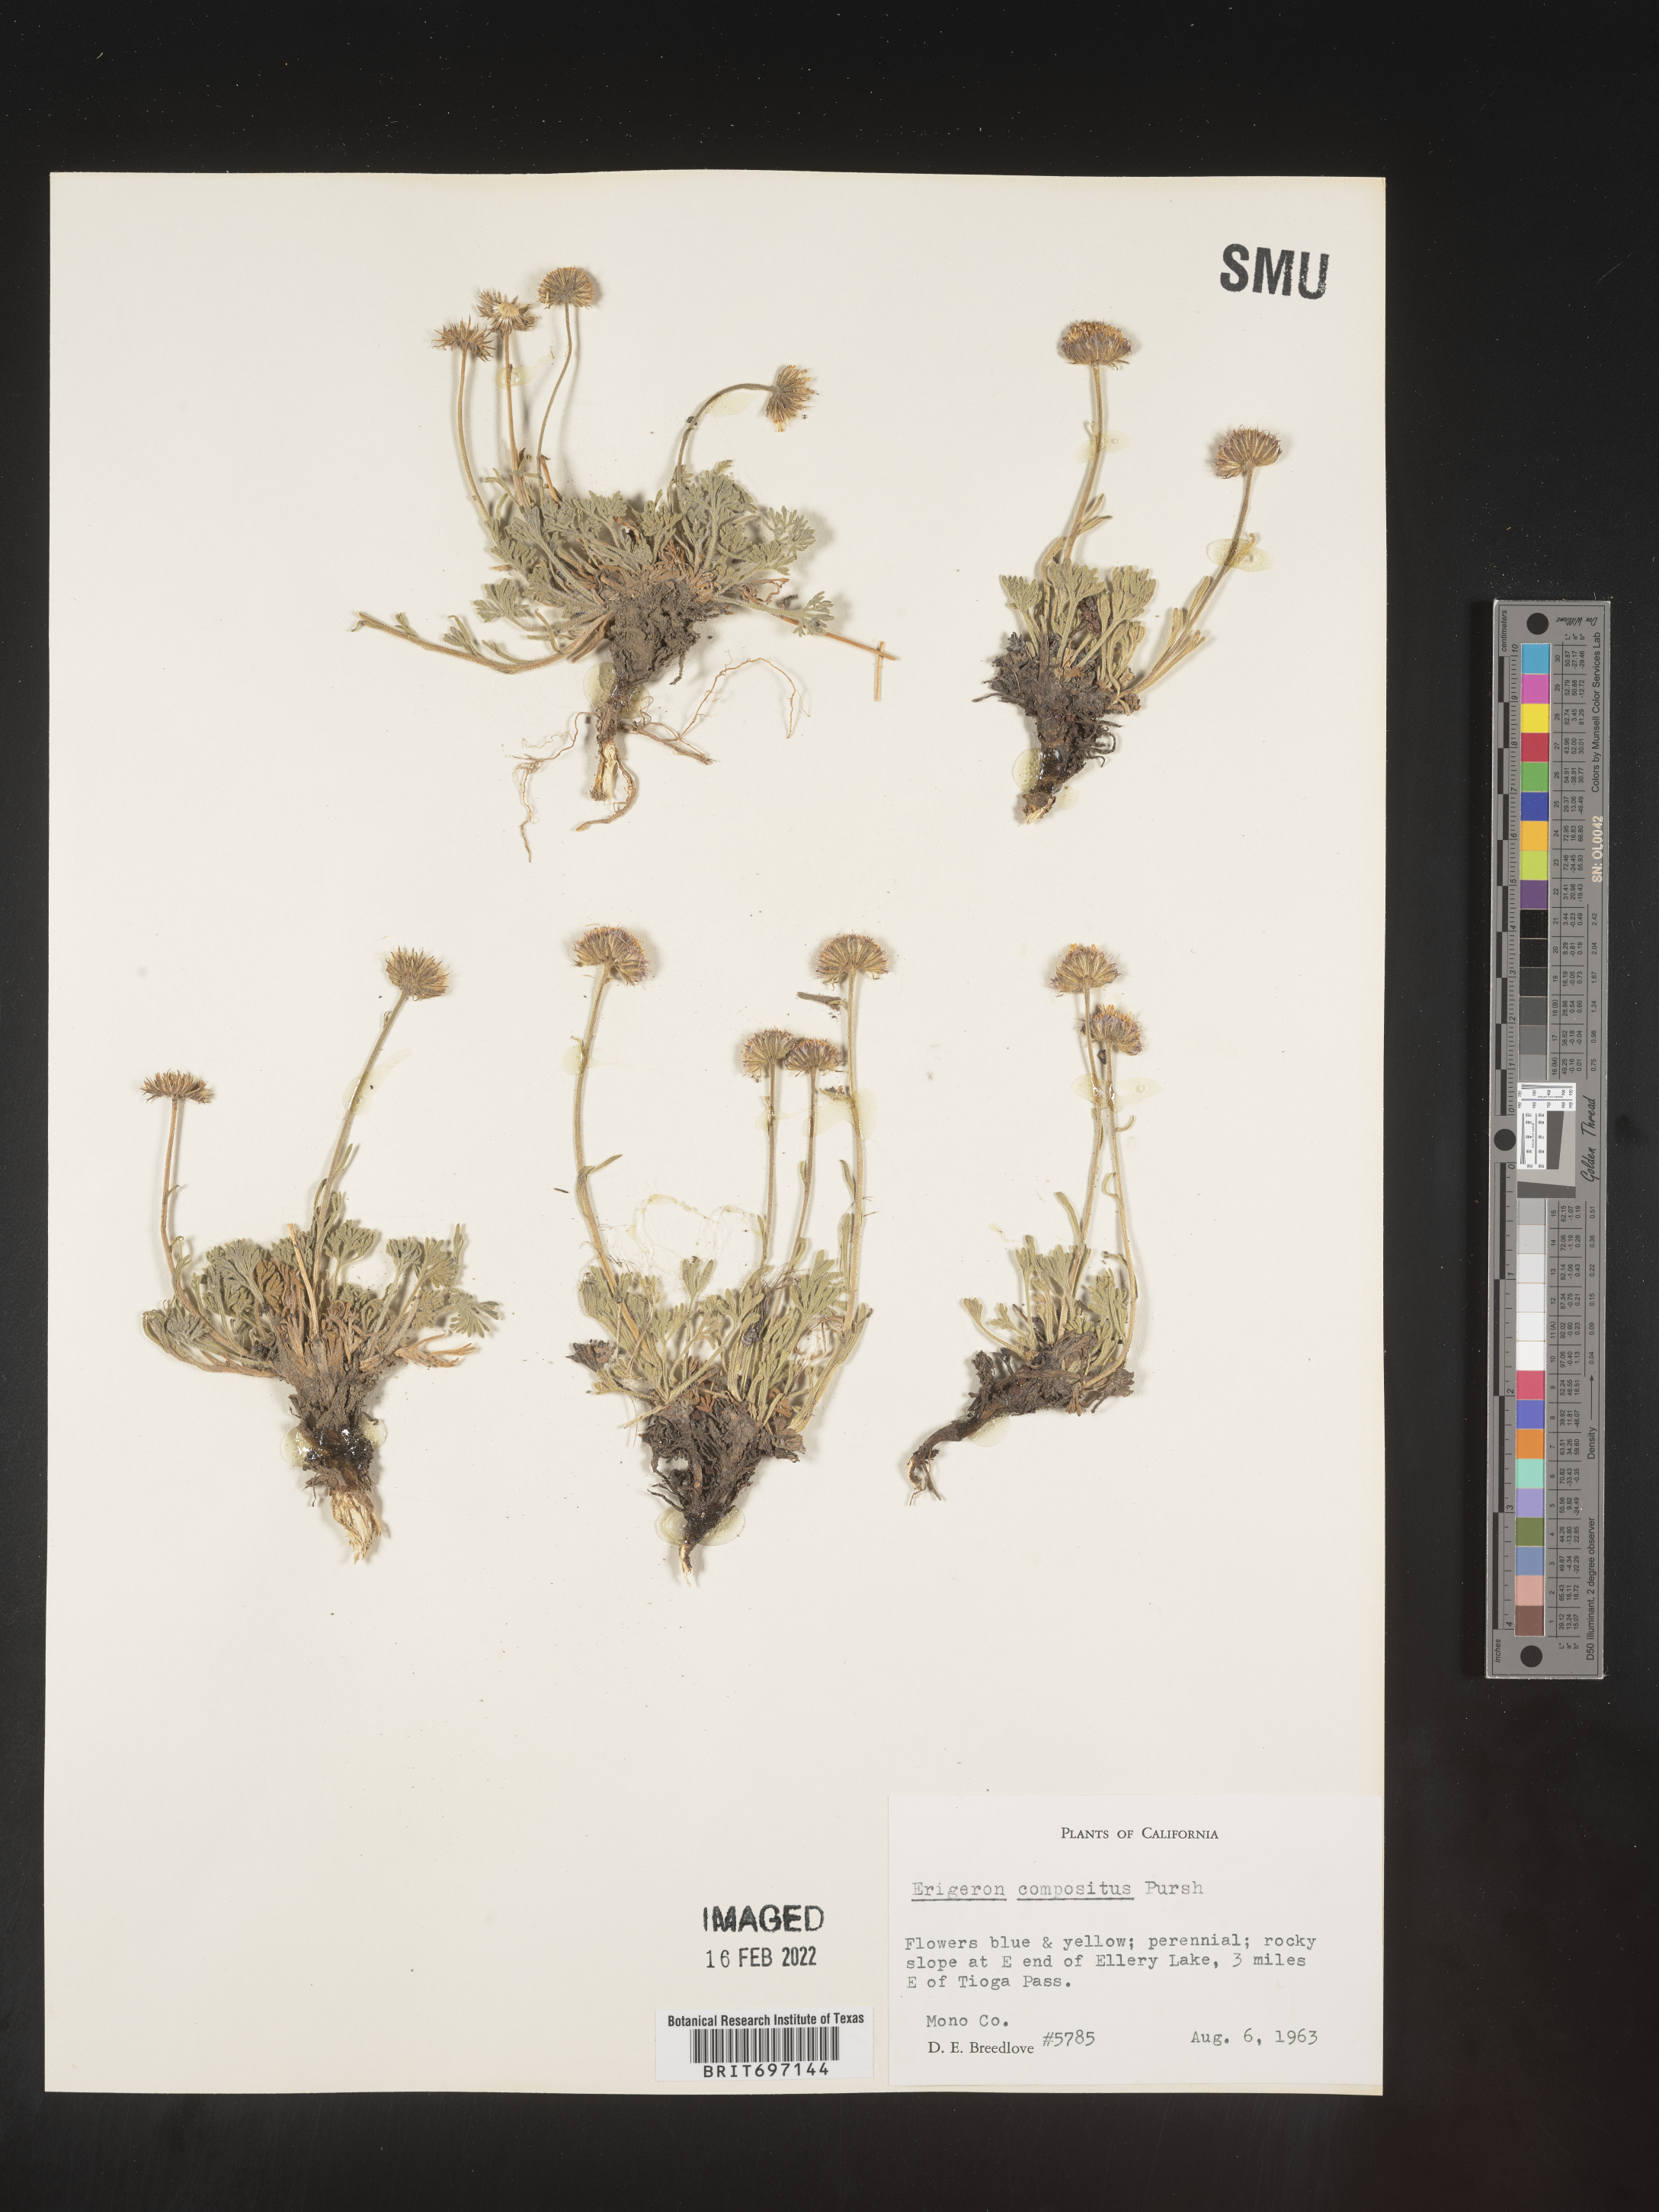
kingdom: Plantae
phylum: Tracheophyta
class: Magnoliopsida
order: Asterales
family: Asteraceae
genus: Erigeron
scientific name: Erigeron compositus
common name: Dwarf mountain fleabane
